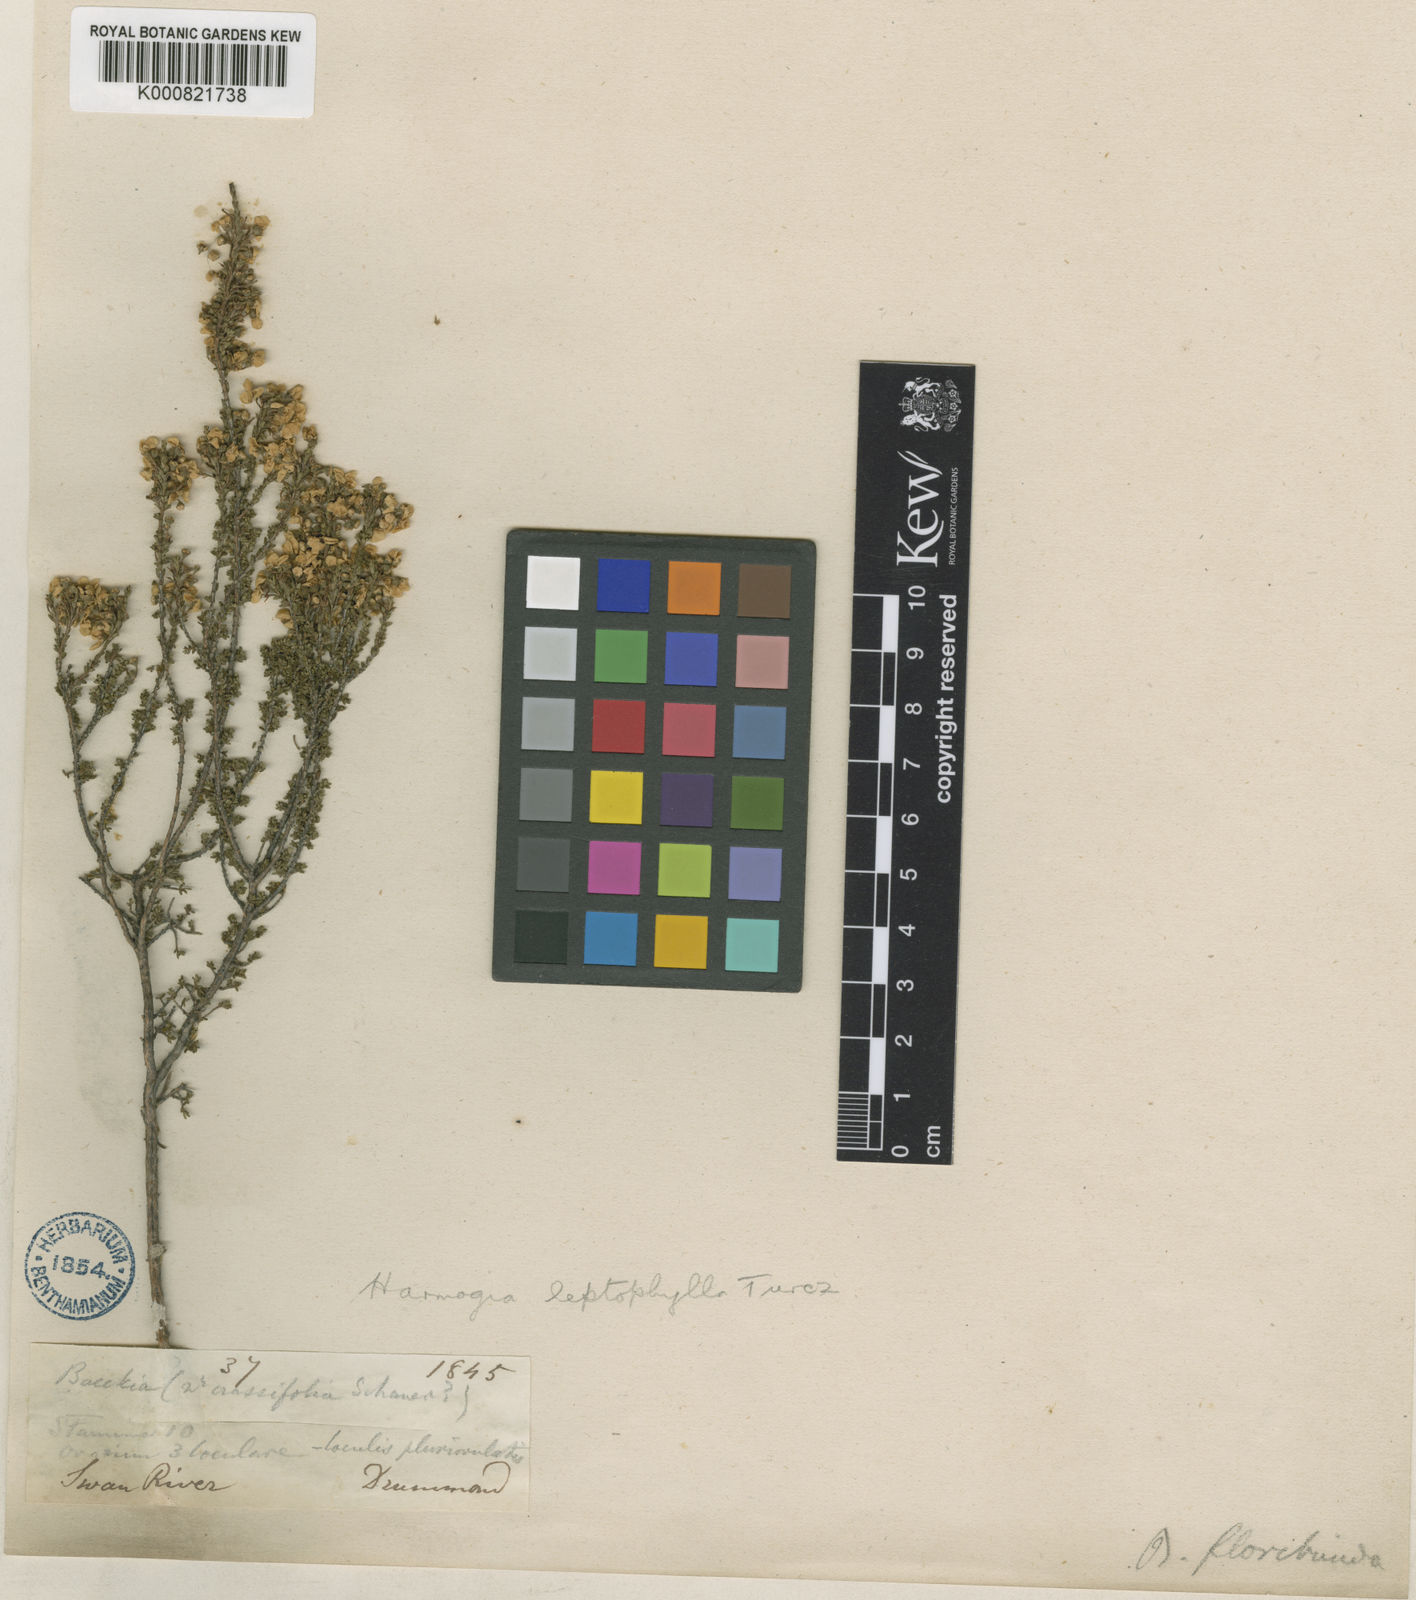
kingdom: Plantae
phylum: Tracheophyta
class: Magnoliopsida
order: Myrtales
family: Myrtaceae
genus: Baeckea
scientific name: Baeckea leptophylla
